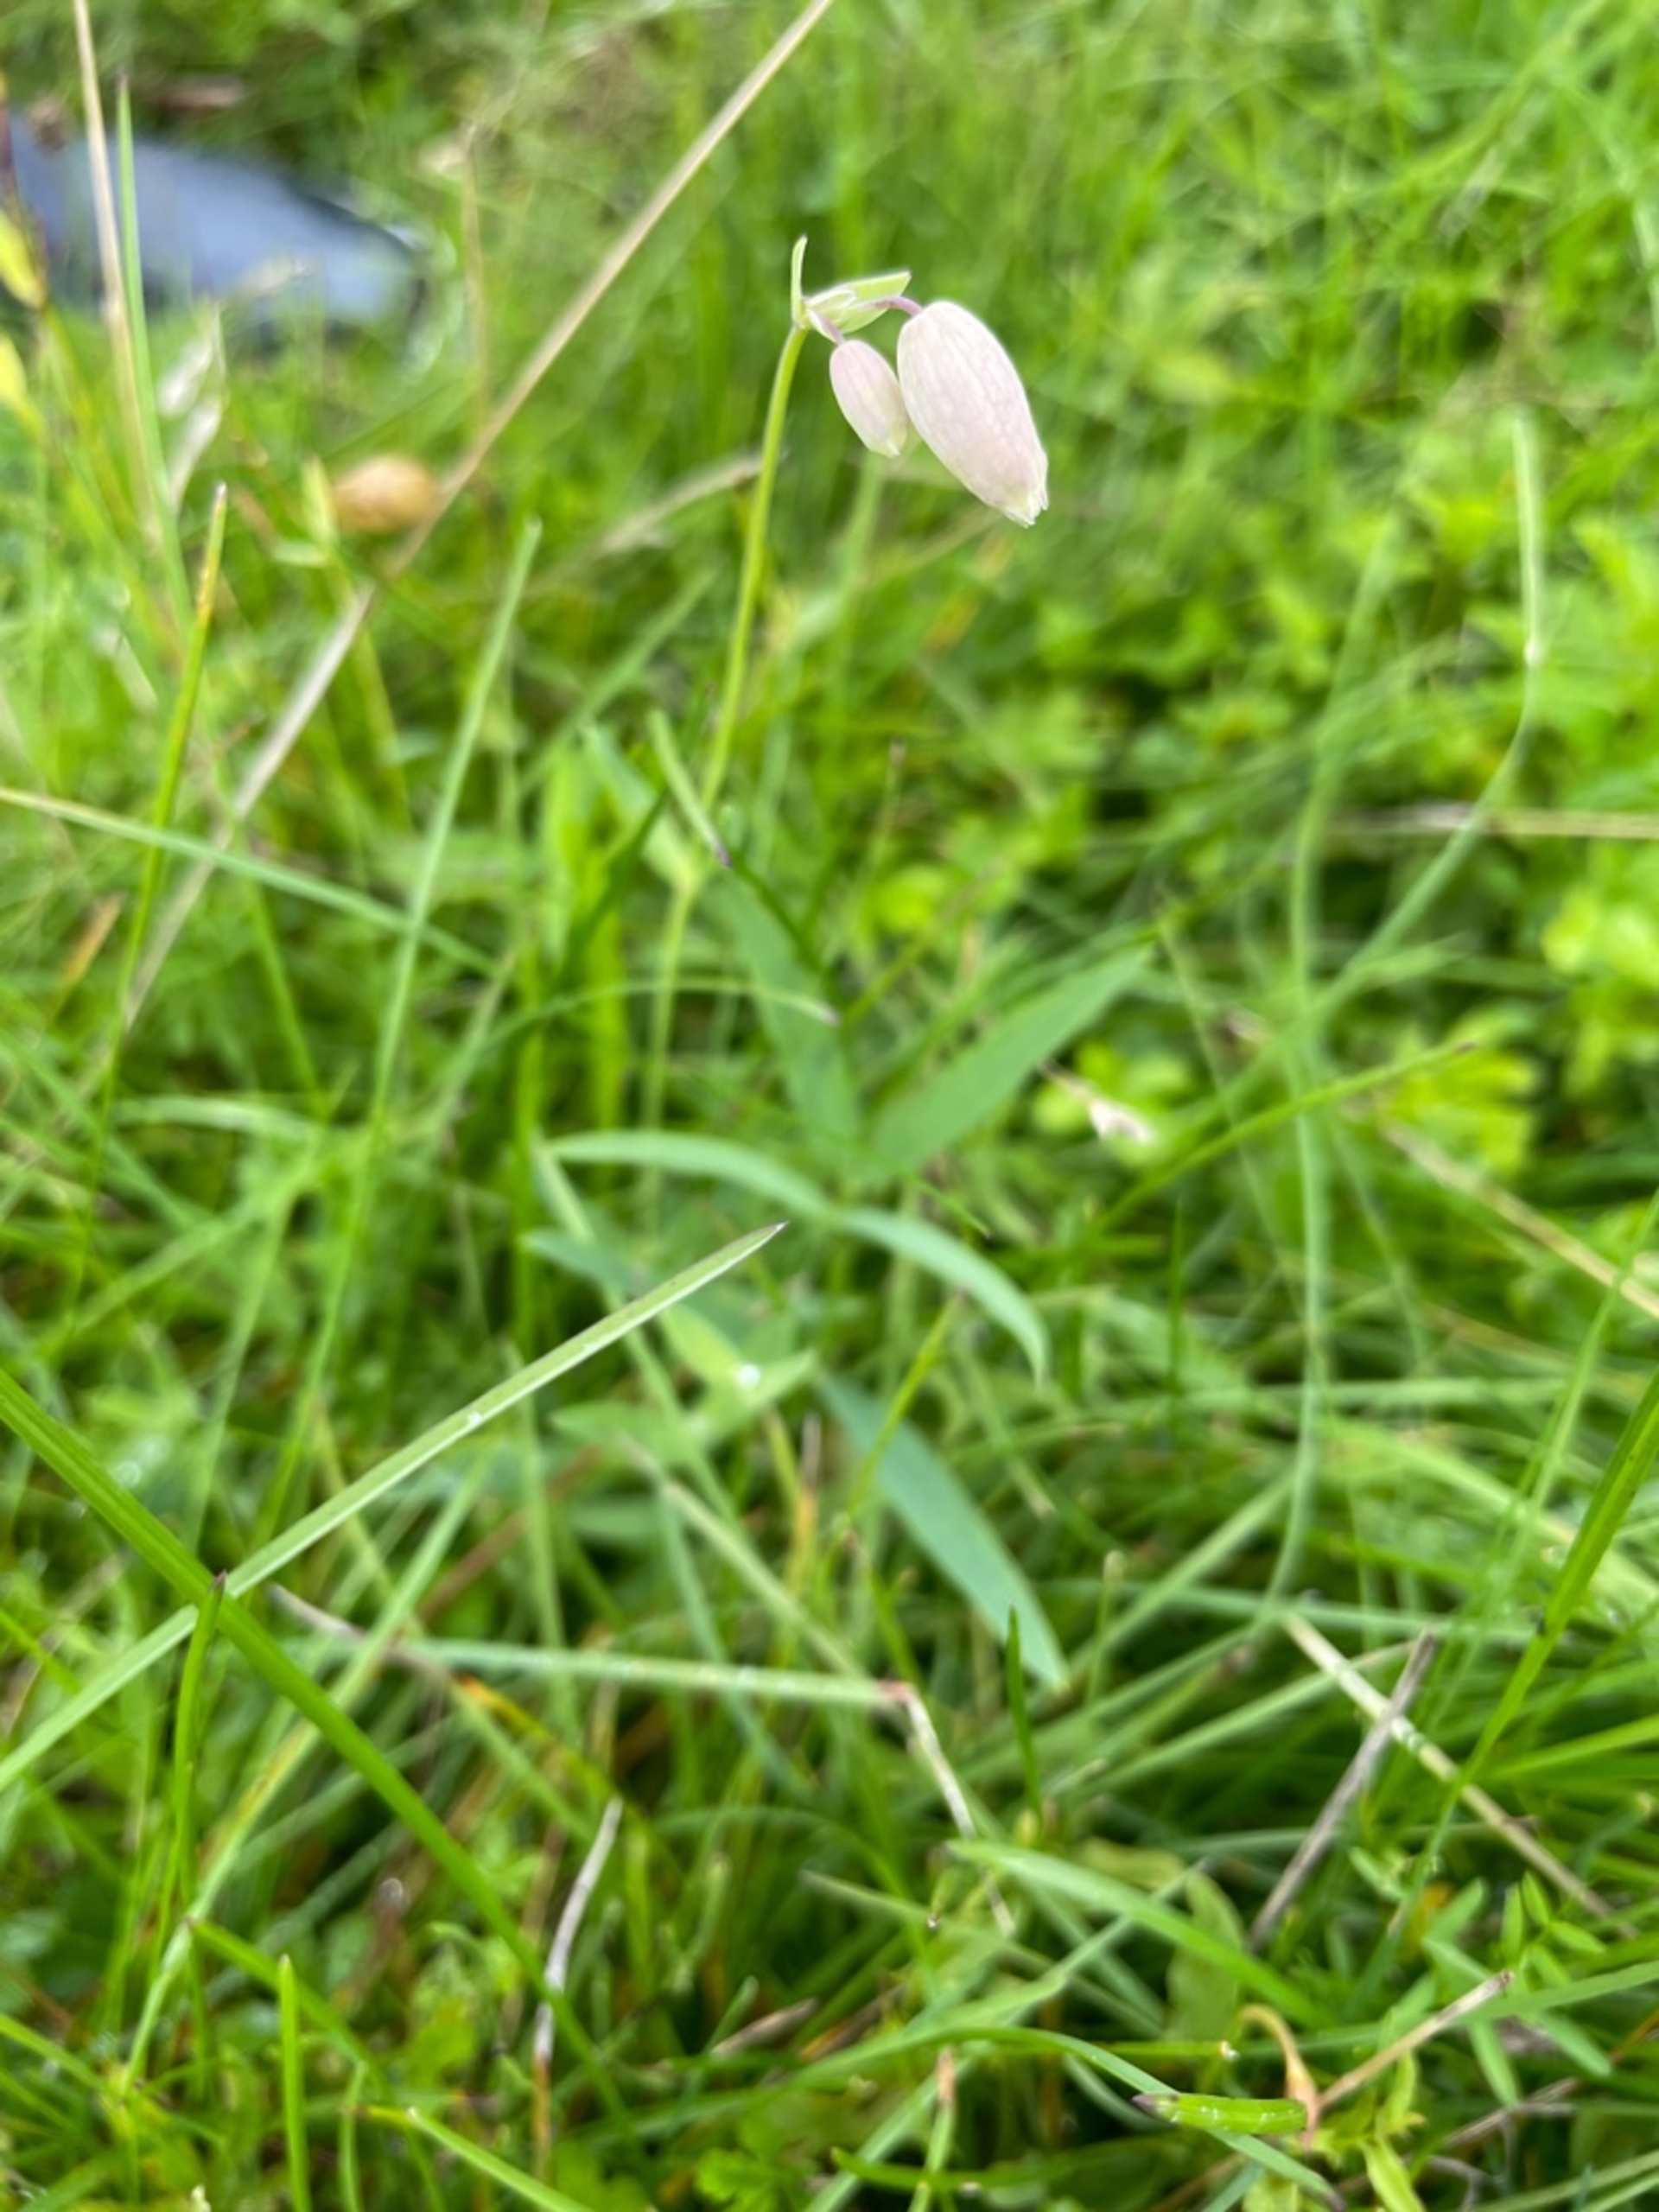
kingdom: Plantae
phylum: Tracheophyta
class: Magnoliopsida
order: Caryophyllales
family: Caryophyllaceae
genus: Silene
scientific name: Silene vulgaris
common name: Blæresmælde
